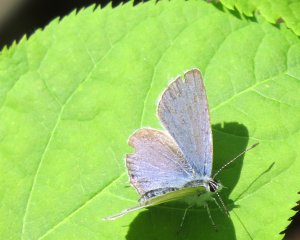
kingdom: Animalia
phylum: Arthropoda
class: Insecta
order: Lepidoptera
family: Lycaenidae
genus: Elkalyce
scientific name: Elkalyce amyntula
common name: Western Tailed-Blue
